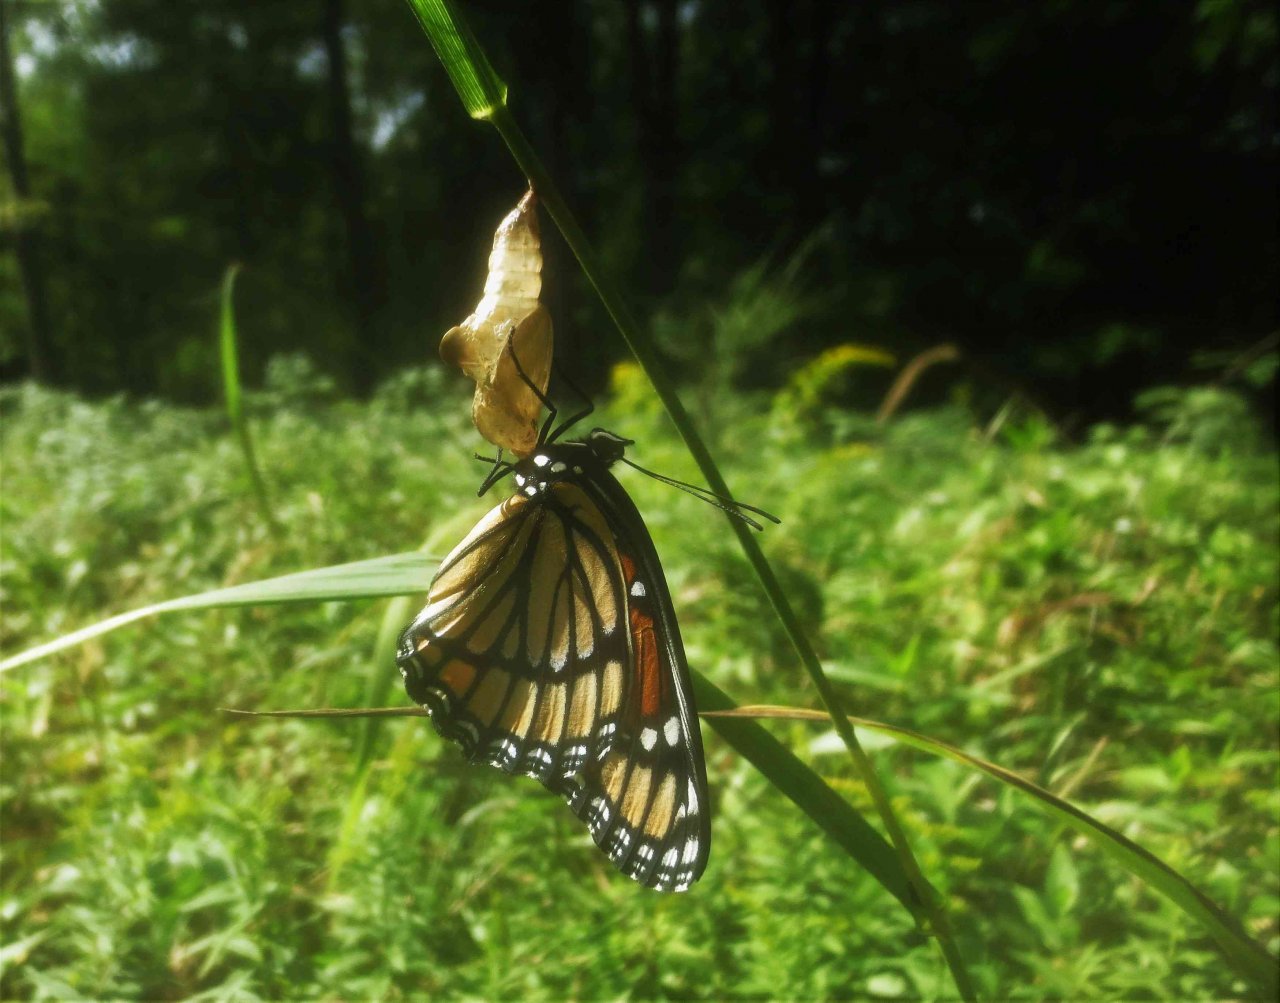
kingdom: Animalia
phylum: Arthropoda
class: Insecta
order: Lepidoptera
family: Nymphalidae
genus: Limenitis
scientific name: Limenitis archippus
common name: Viceroy
